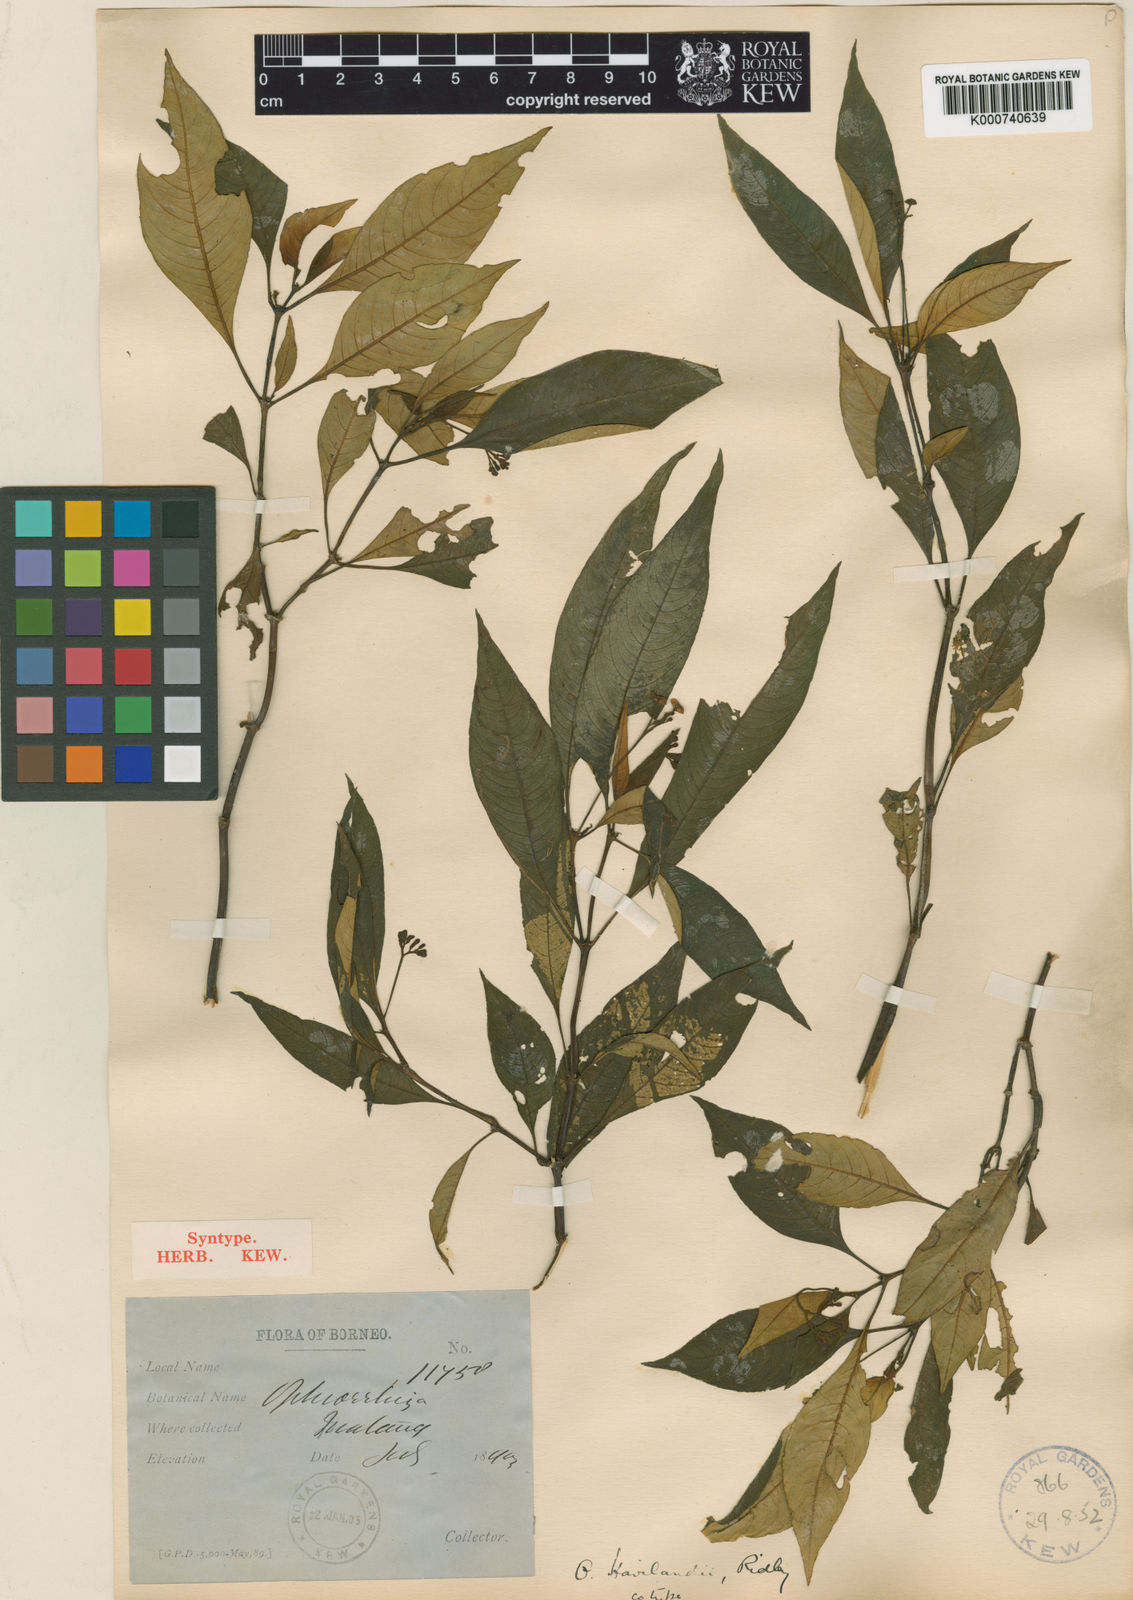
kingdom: Plantae
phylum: Tracheophyta
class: Magnoliopsida
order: Gentianales
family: Rubiaceae
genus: Ophiorrhiza
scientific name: Ophiorrhiza havilandii
